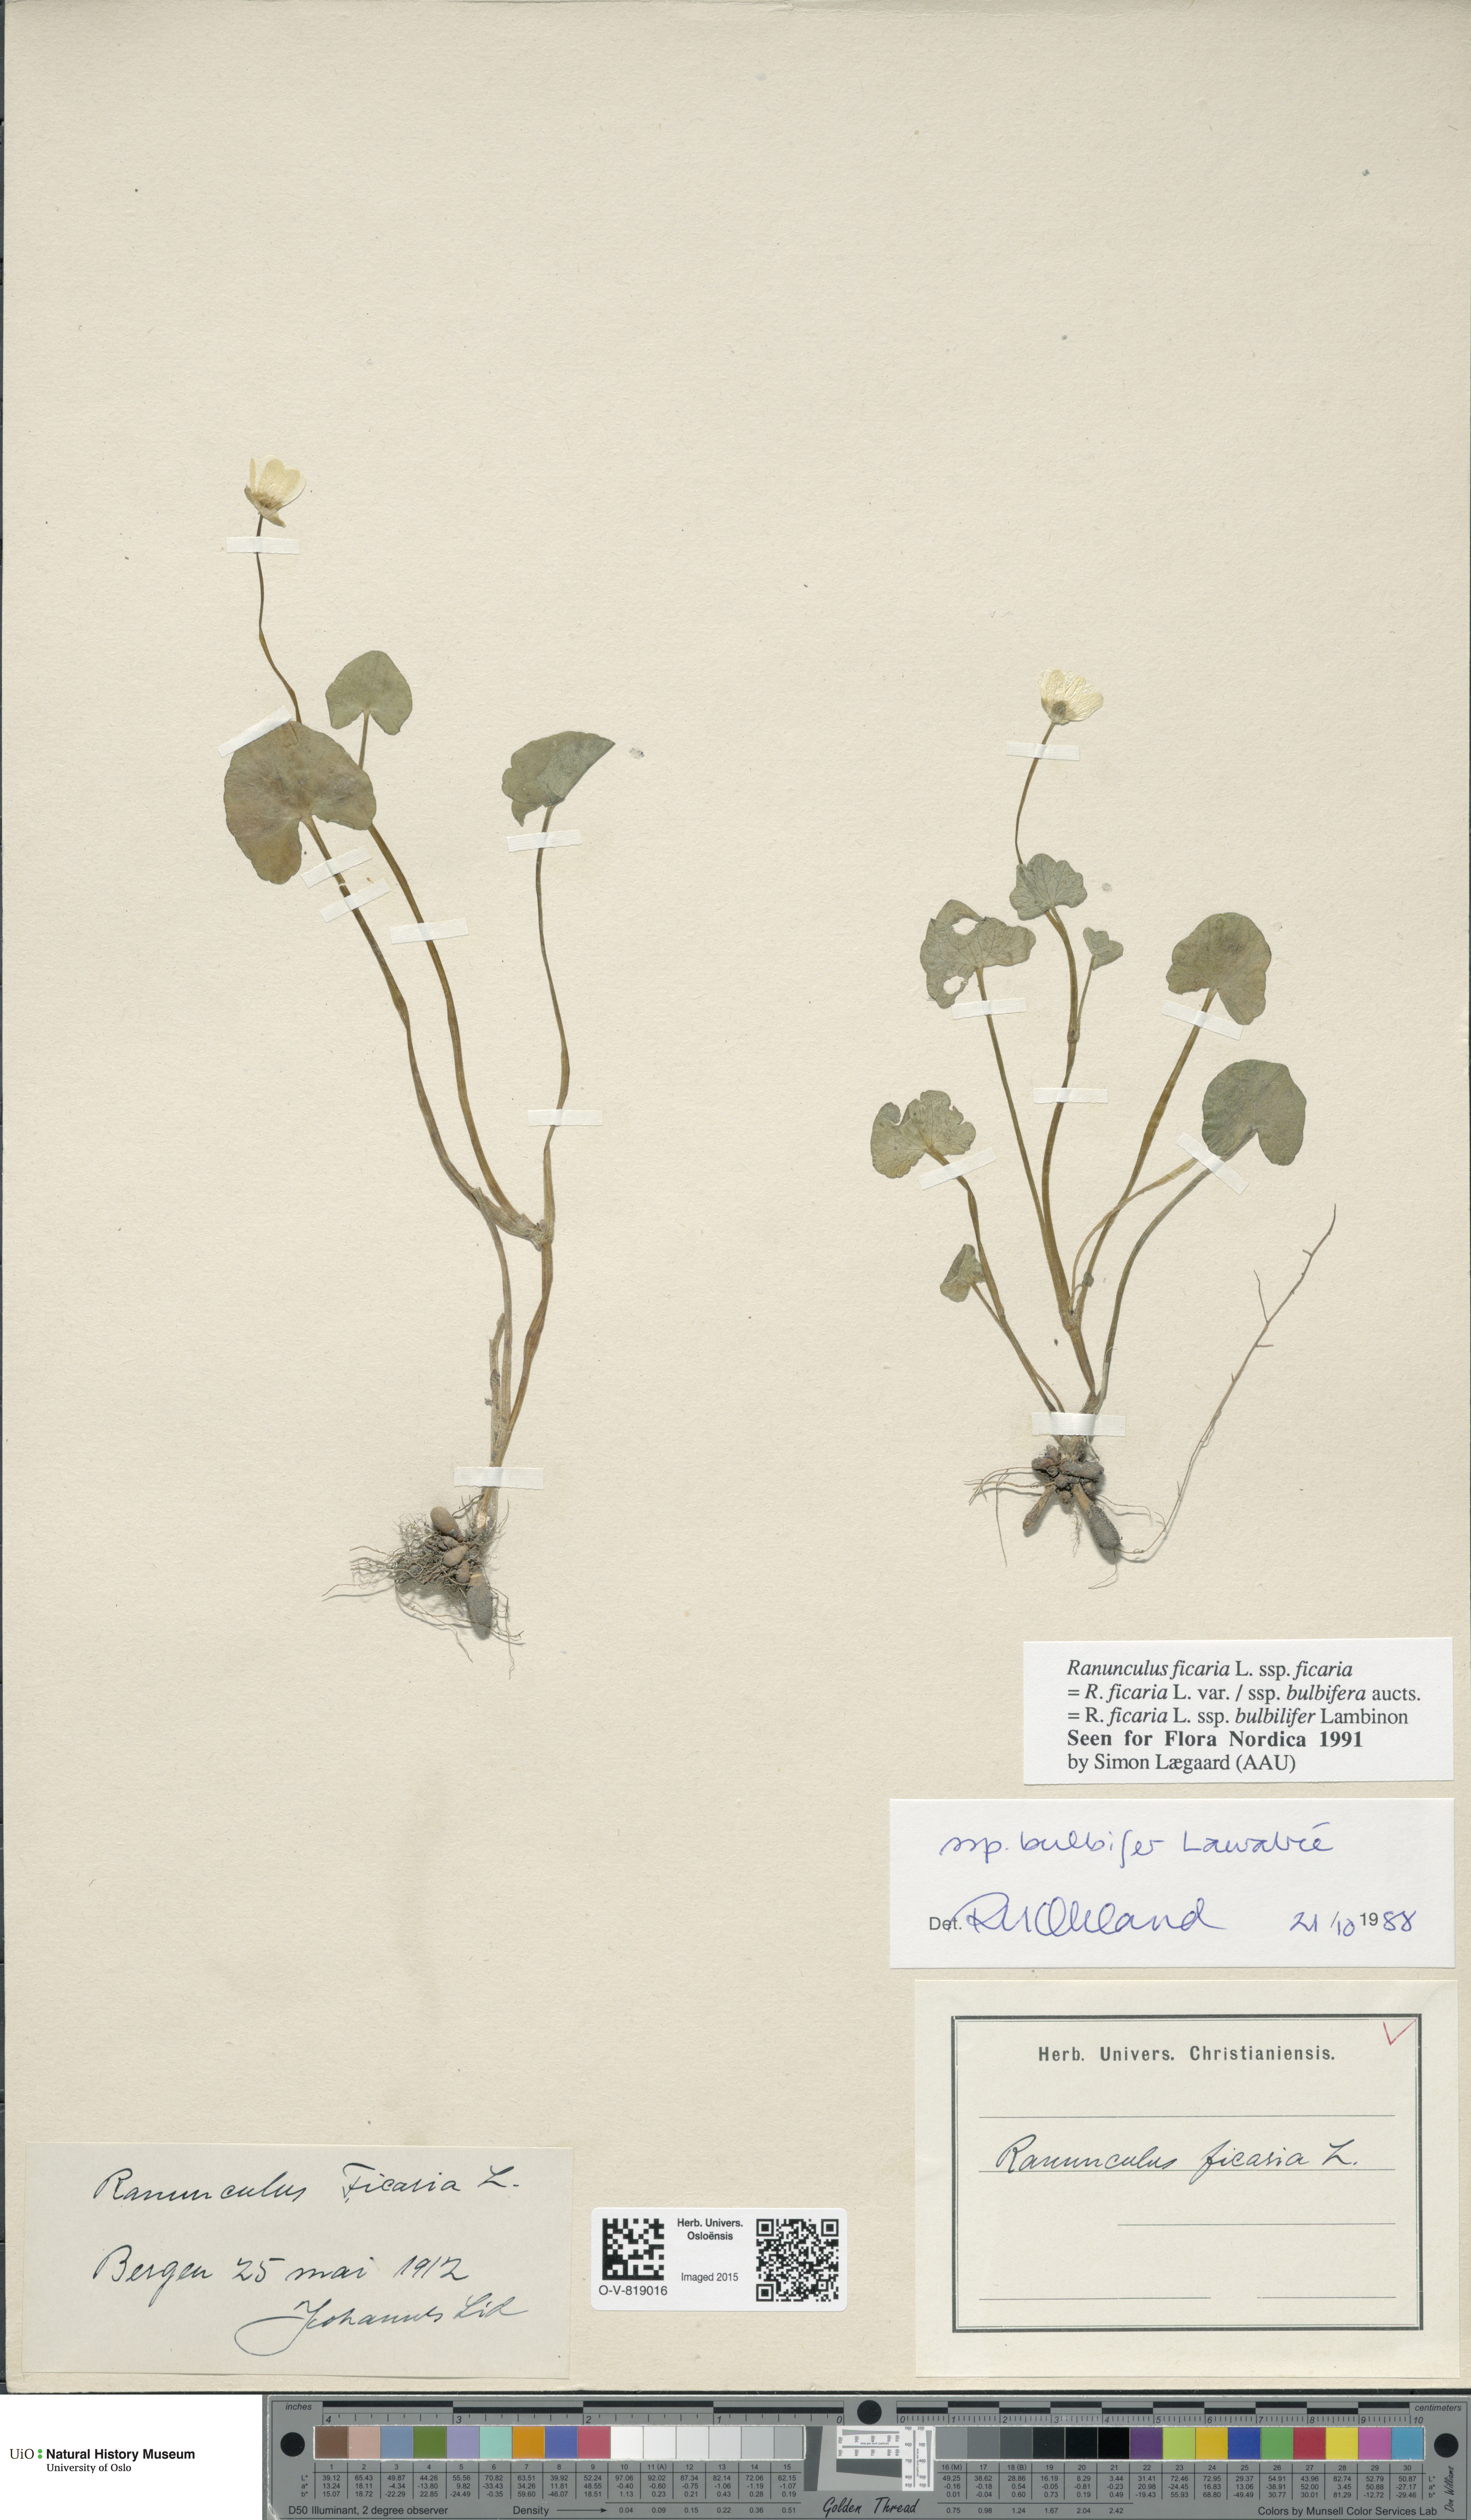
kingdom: Plantae
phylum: Tracheophyta
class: Magnoliopsida
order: Ranunculales
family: Ranunculaceae
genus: Ficaria
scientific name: Ficaria verna
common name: Lesser celandine
